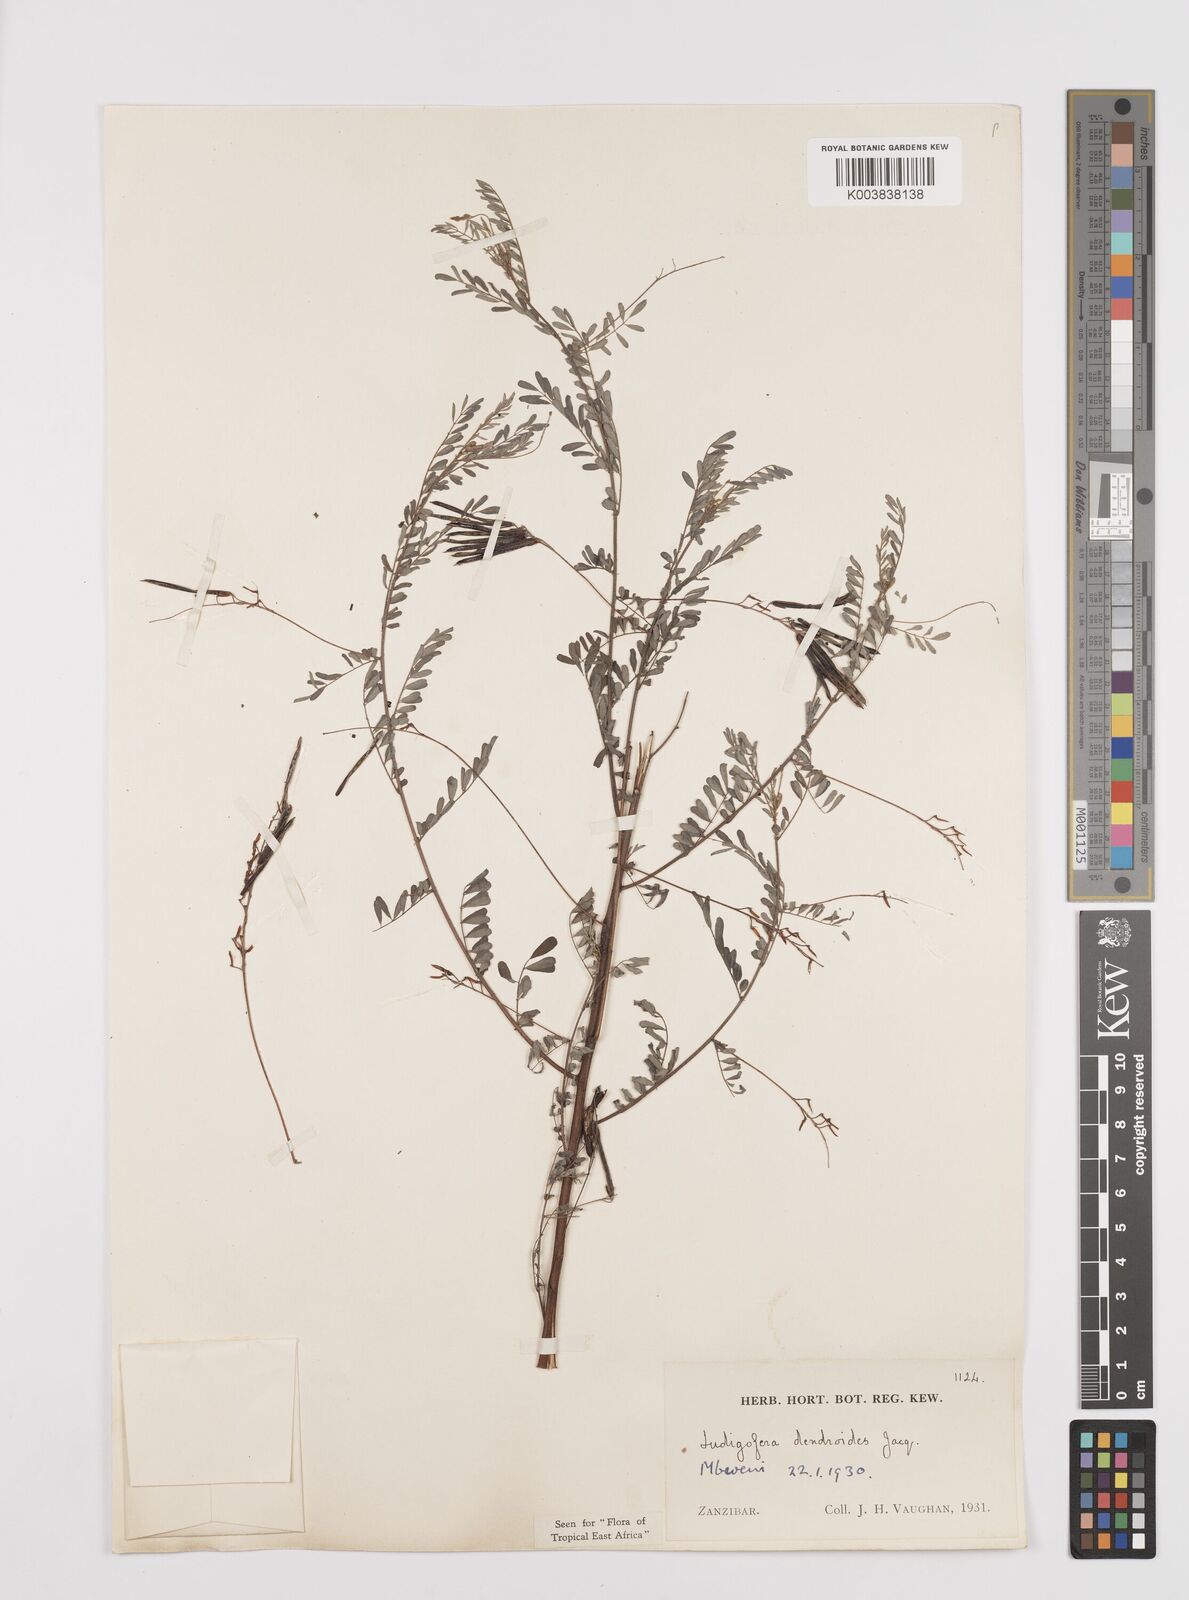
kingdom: Plantae
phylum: Tracheophyta
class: Magnoliopsida
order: Fabales
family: Fabaceae
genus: Indigofera
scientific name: Indigofera dendroides
